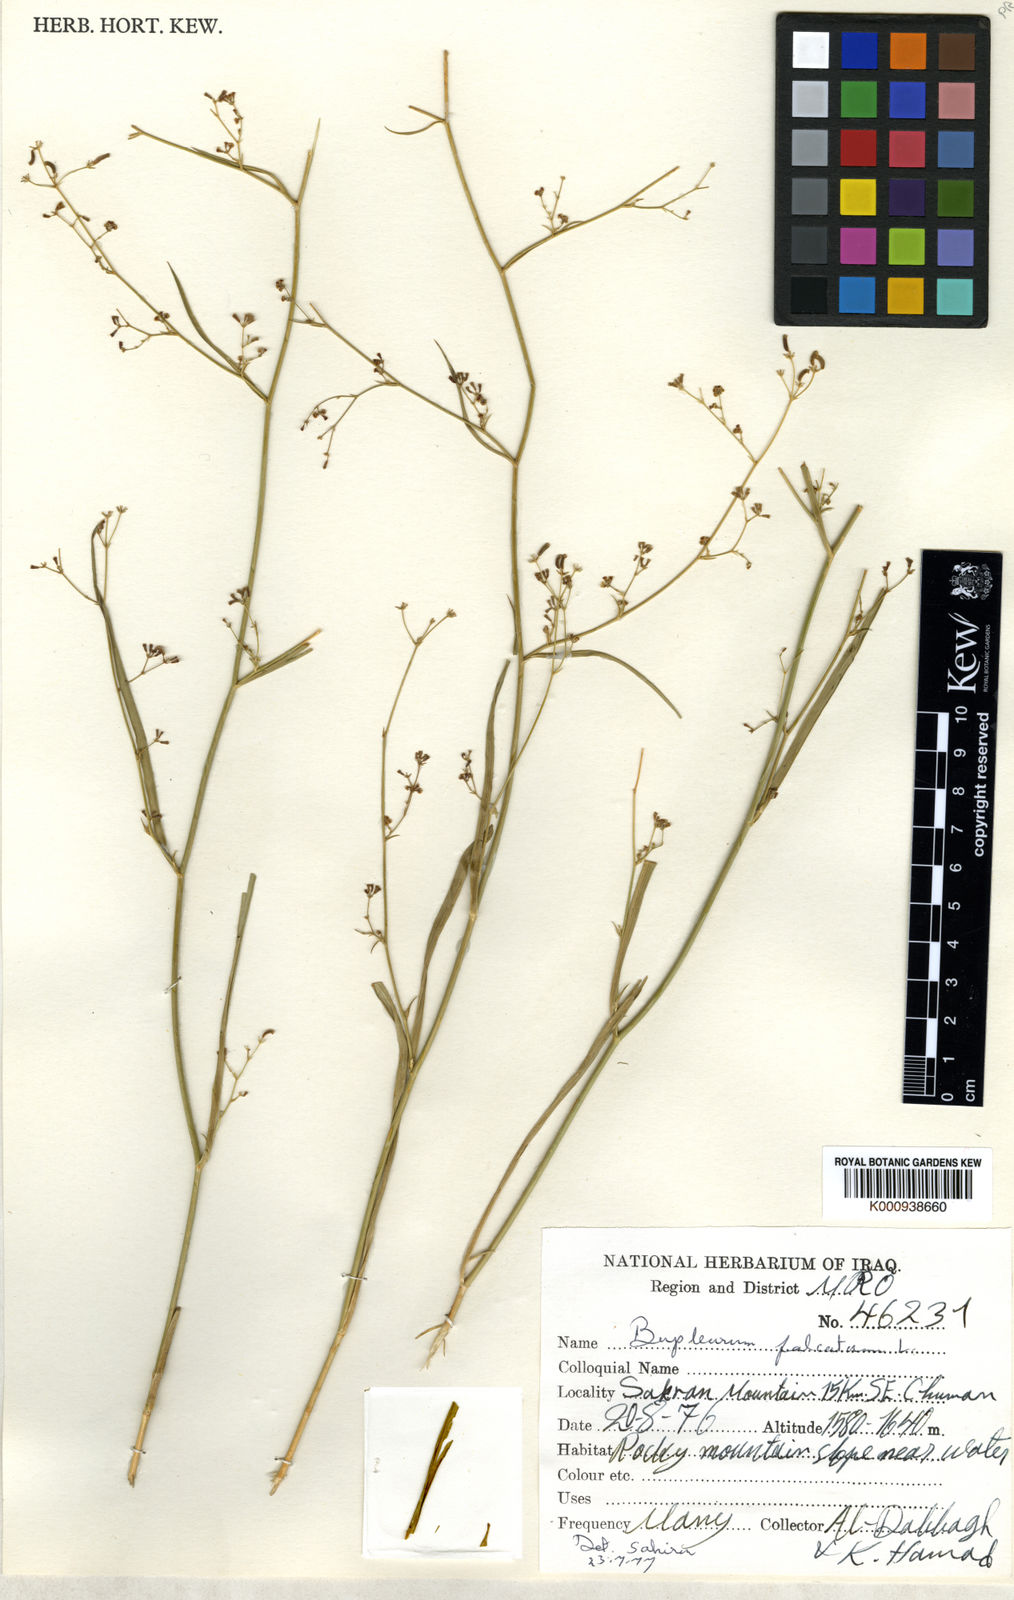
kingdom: Plantae
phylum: Tracheophyta
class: Magnoliopsida
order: Apiales
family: Apiaceae
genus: Bupleurum
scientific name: Bupleurum falcatum
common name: Sickle-leaved hare's-ear
